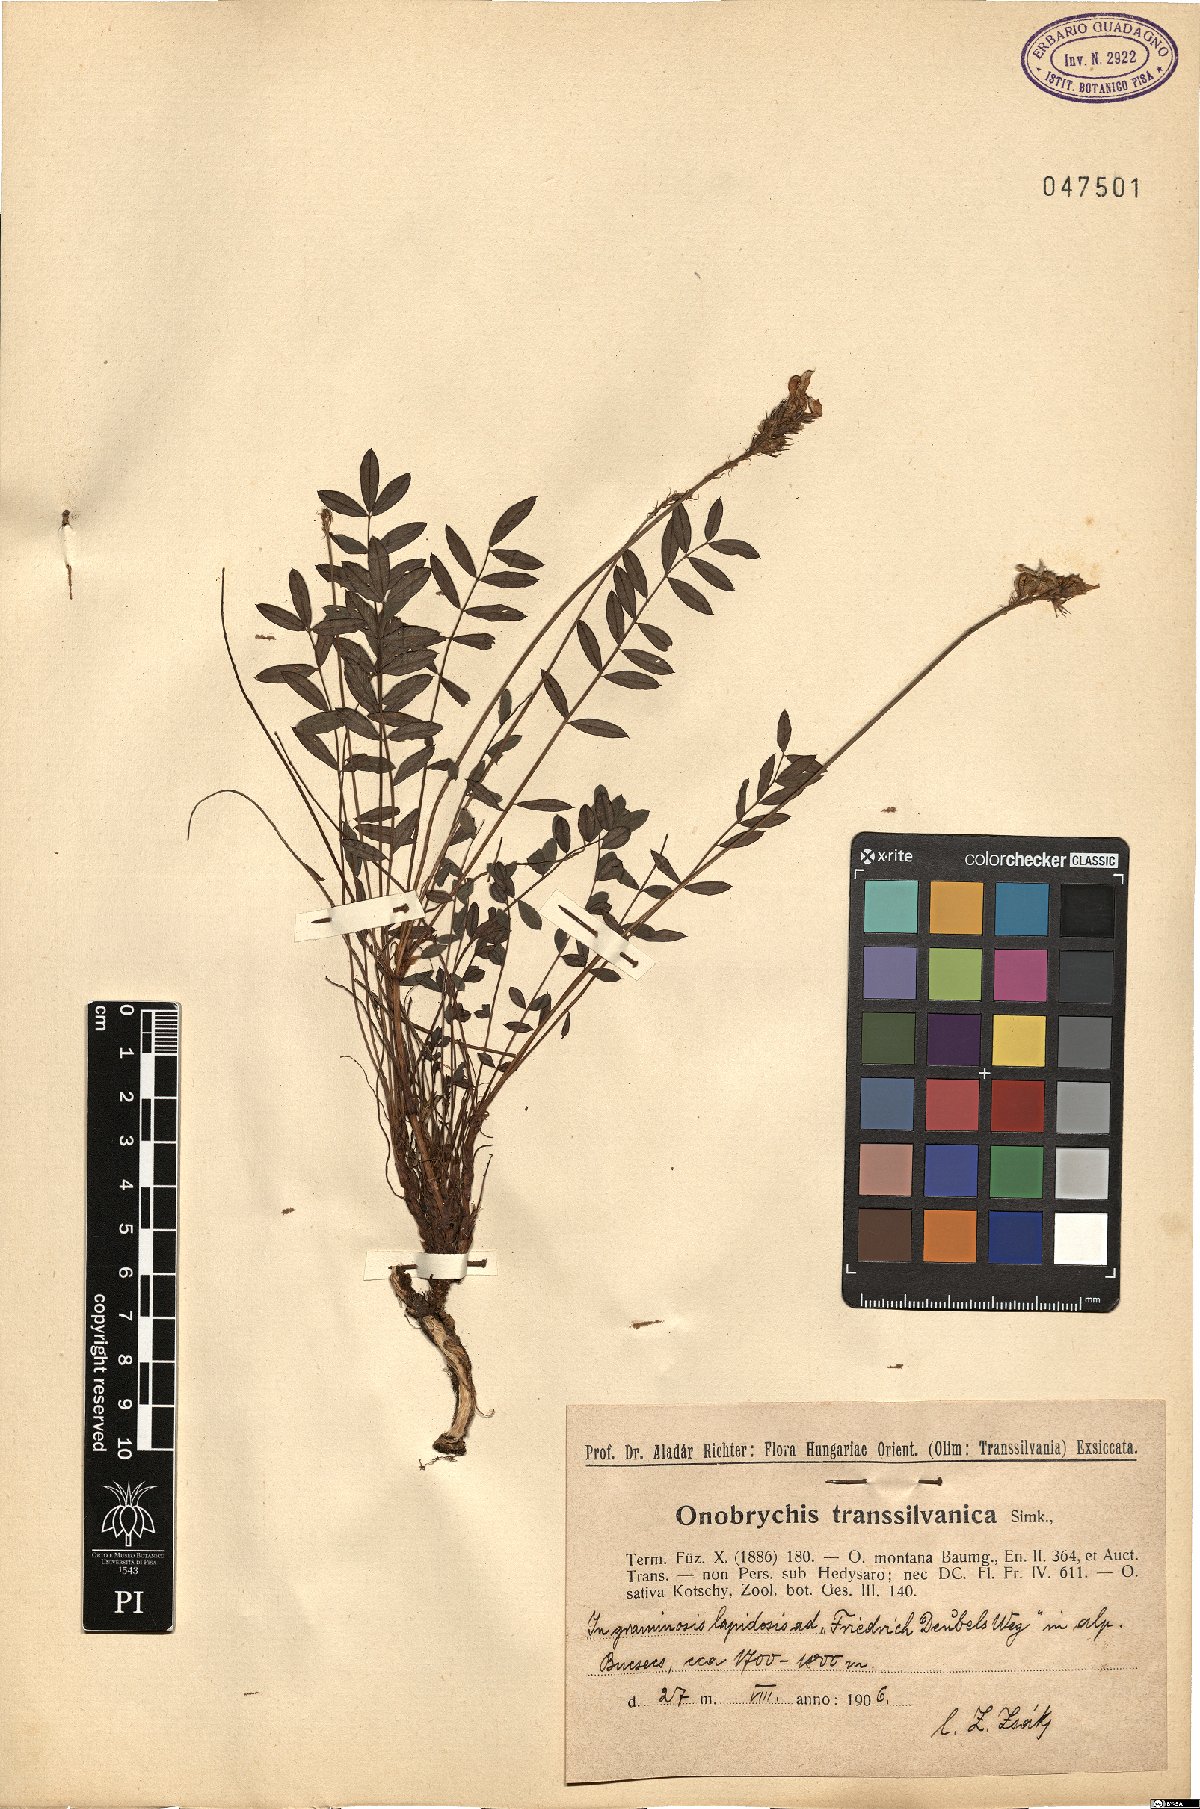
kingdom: Plantae
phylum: Tracheophyta
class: Magnoliopsida
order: Fabales
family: Fabaceae
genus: Onobrychis
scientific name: Onobrychis montana
